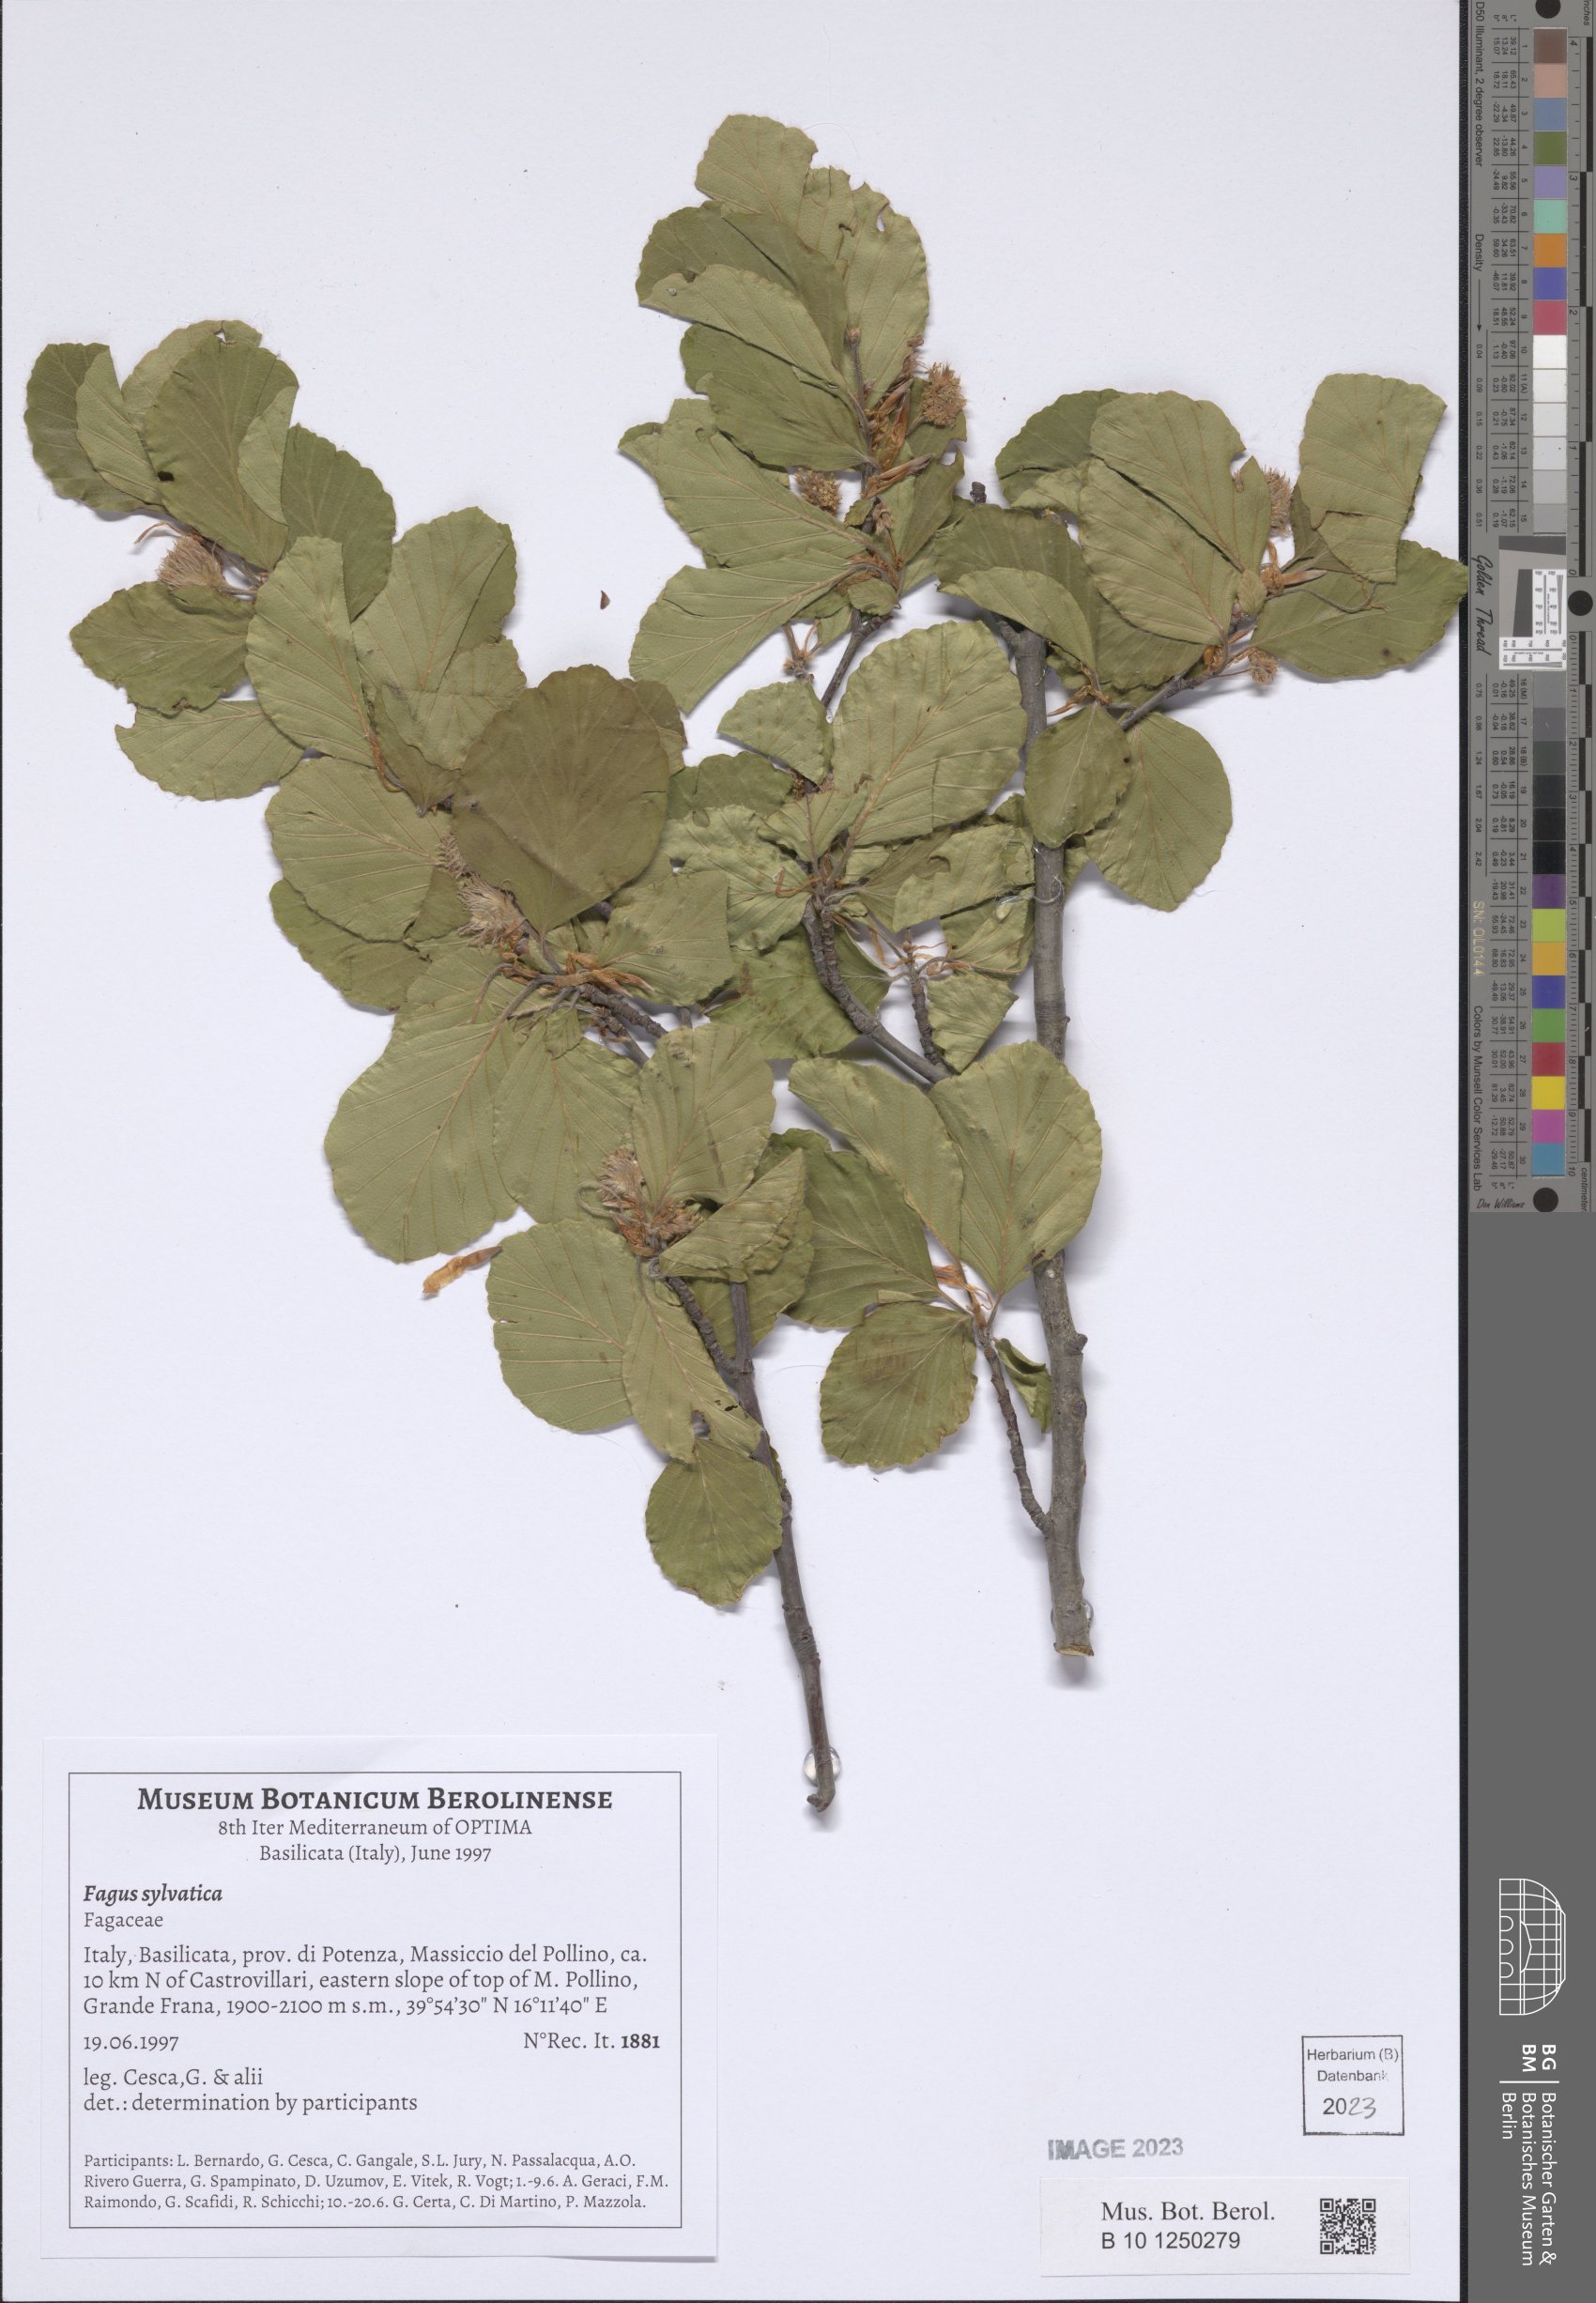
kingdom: Plantae
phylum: Tracheophyta
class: Magnoliopsida
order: Fagales
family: Fagaceae
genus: Fagus
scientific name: Fagus sylvatica
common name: Beech
